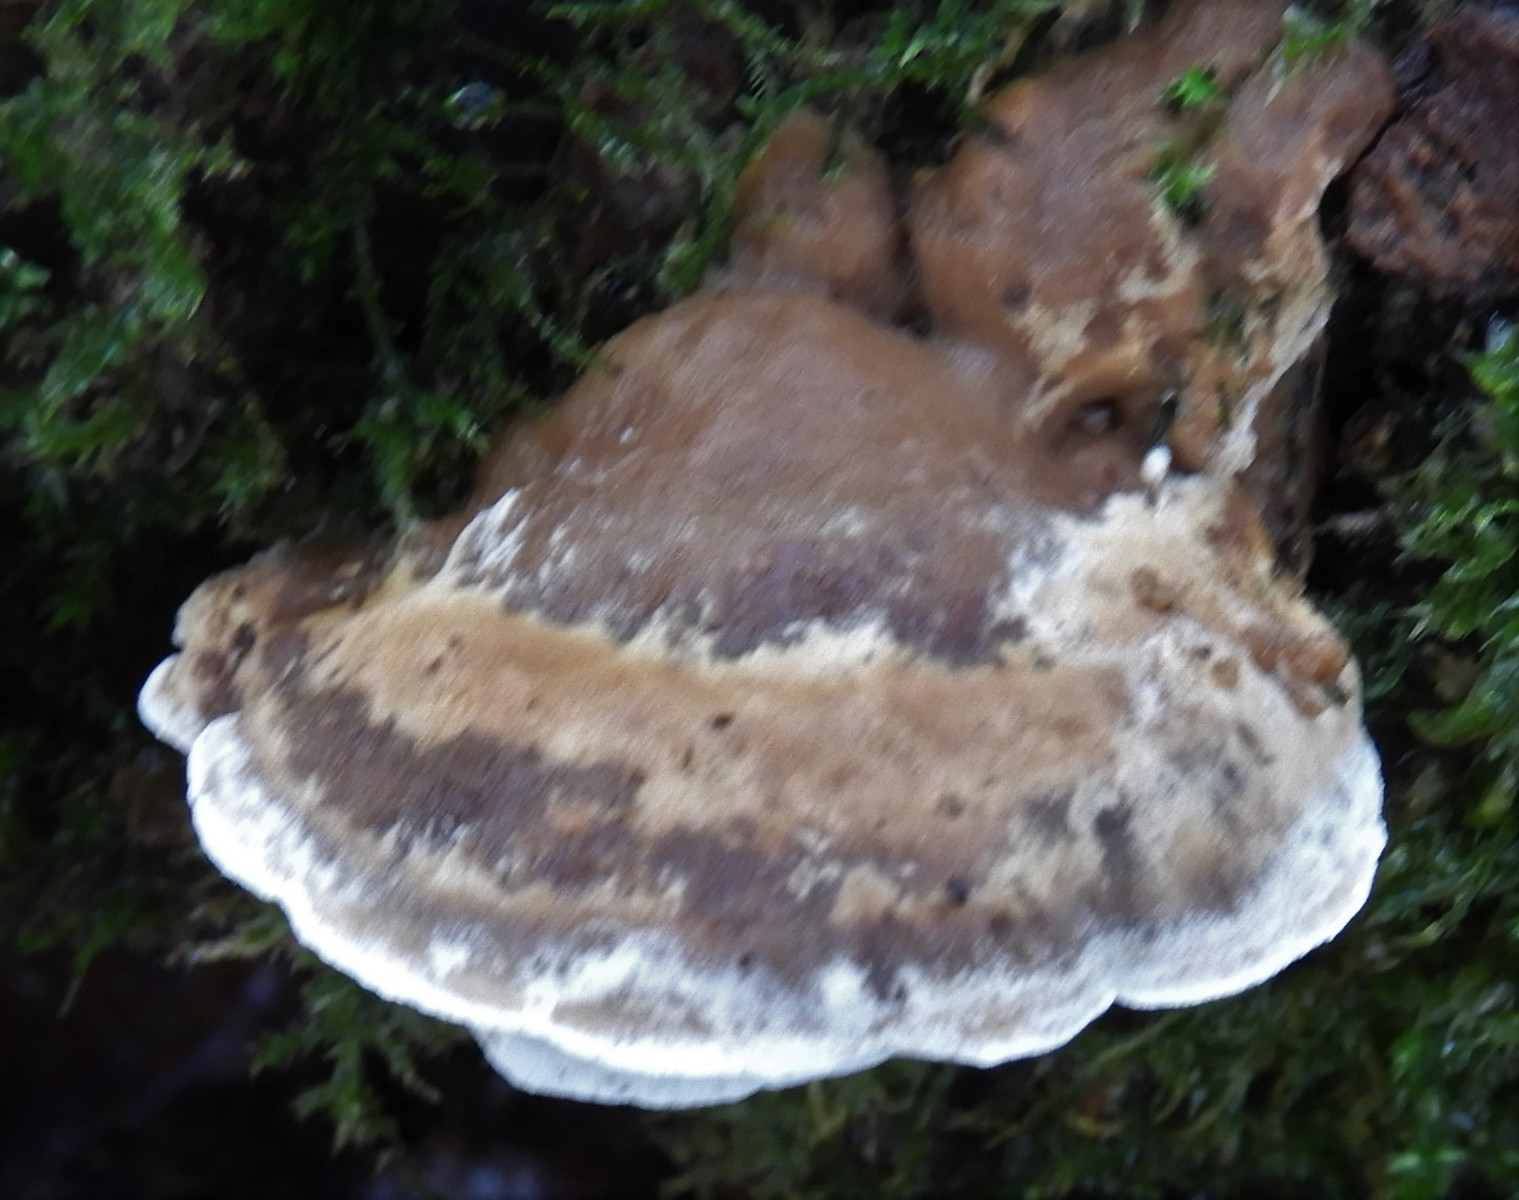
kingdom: Fungi
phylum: Basidiomycota
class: Agaricomycetes
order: Polyporales
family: Phanerochaetaceae
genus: Bjerkandera
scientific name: Bjerkandera fumosa
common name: grågul sodporesvamp
